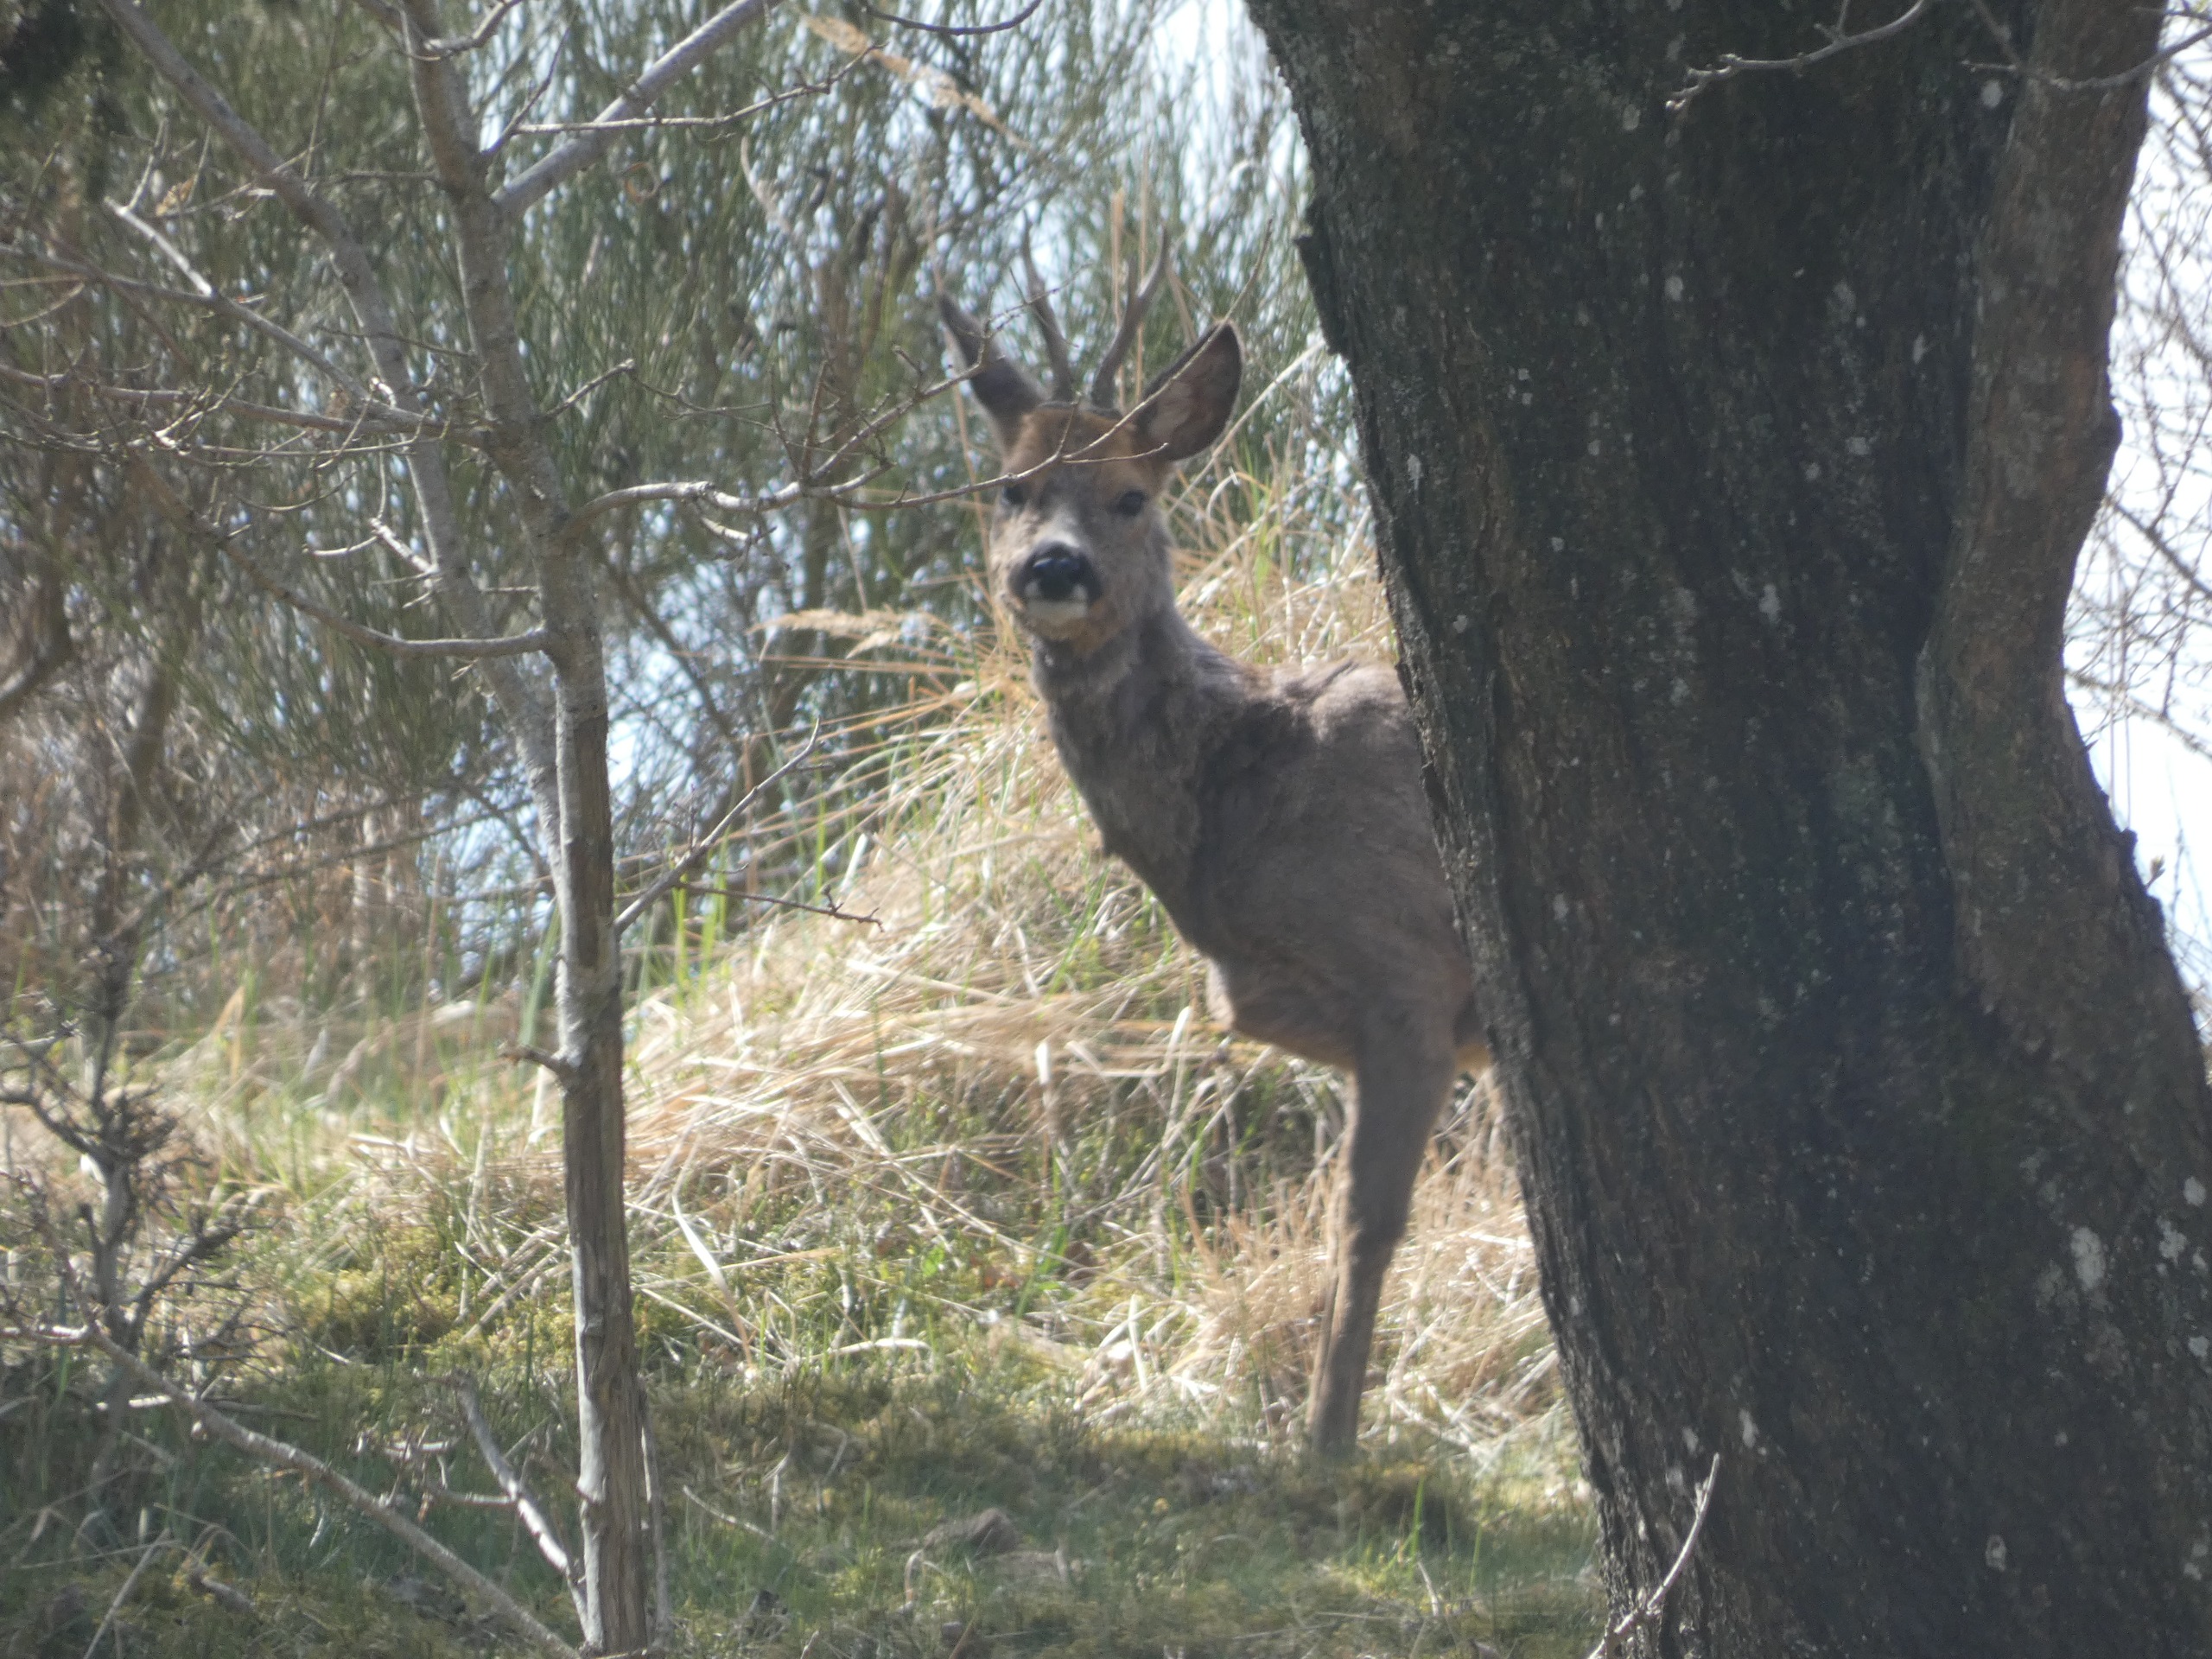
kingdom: Animalia
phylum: Chordata
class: Mammalia
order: Artiodactyla
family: Cervidae
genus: Capreolus
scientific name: Capreolus capreolus
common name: Rådyr
